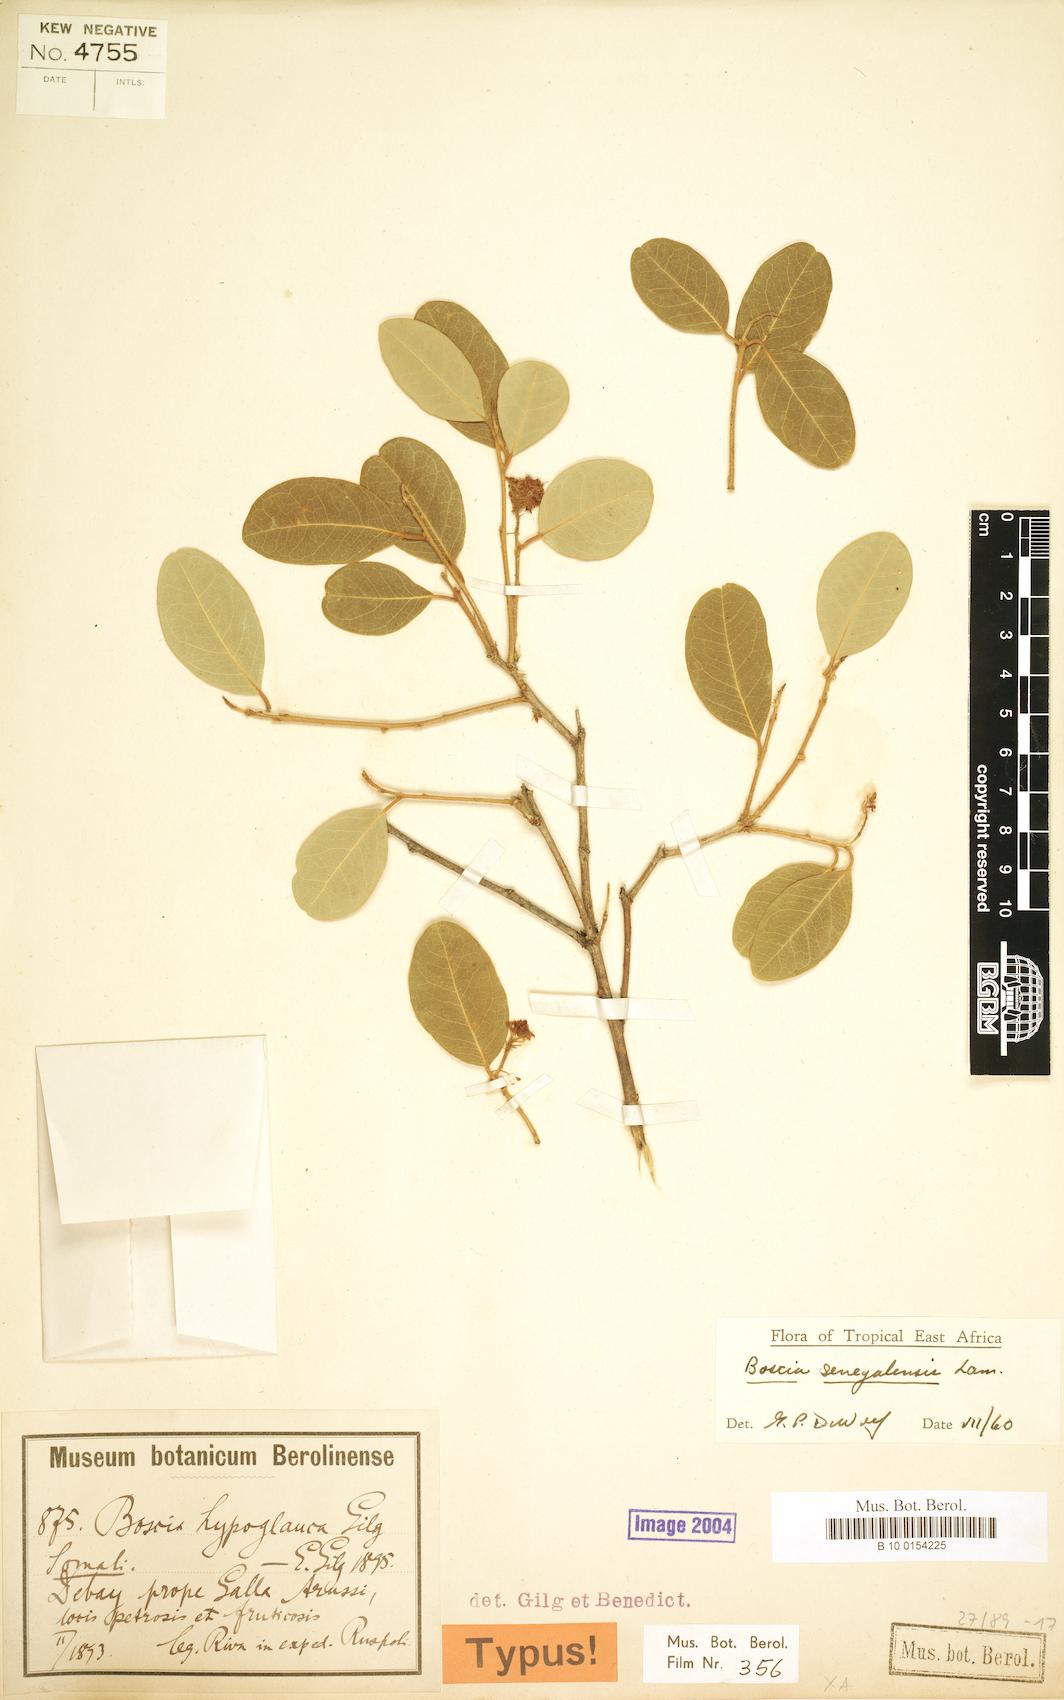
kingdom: Plantae
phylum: Tracheophyta
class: Magnoliopsida
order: Brassicales
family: Capparaceae
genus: Boscia
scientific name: Boscia senegalensis
